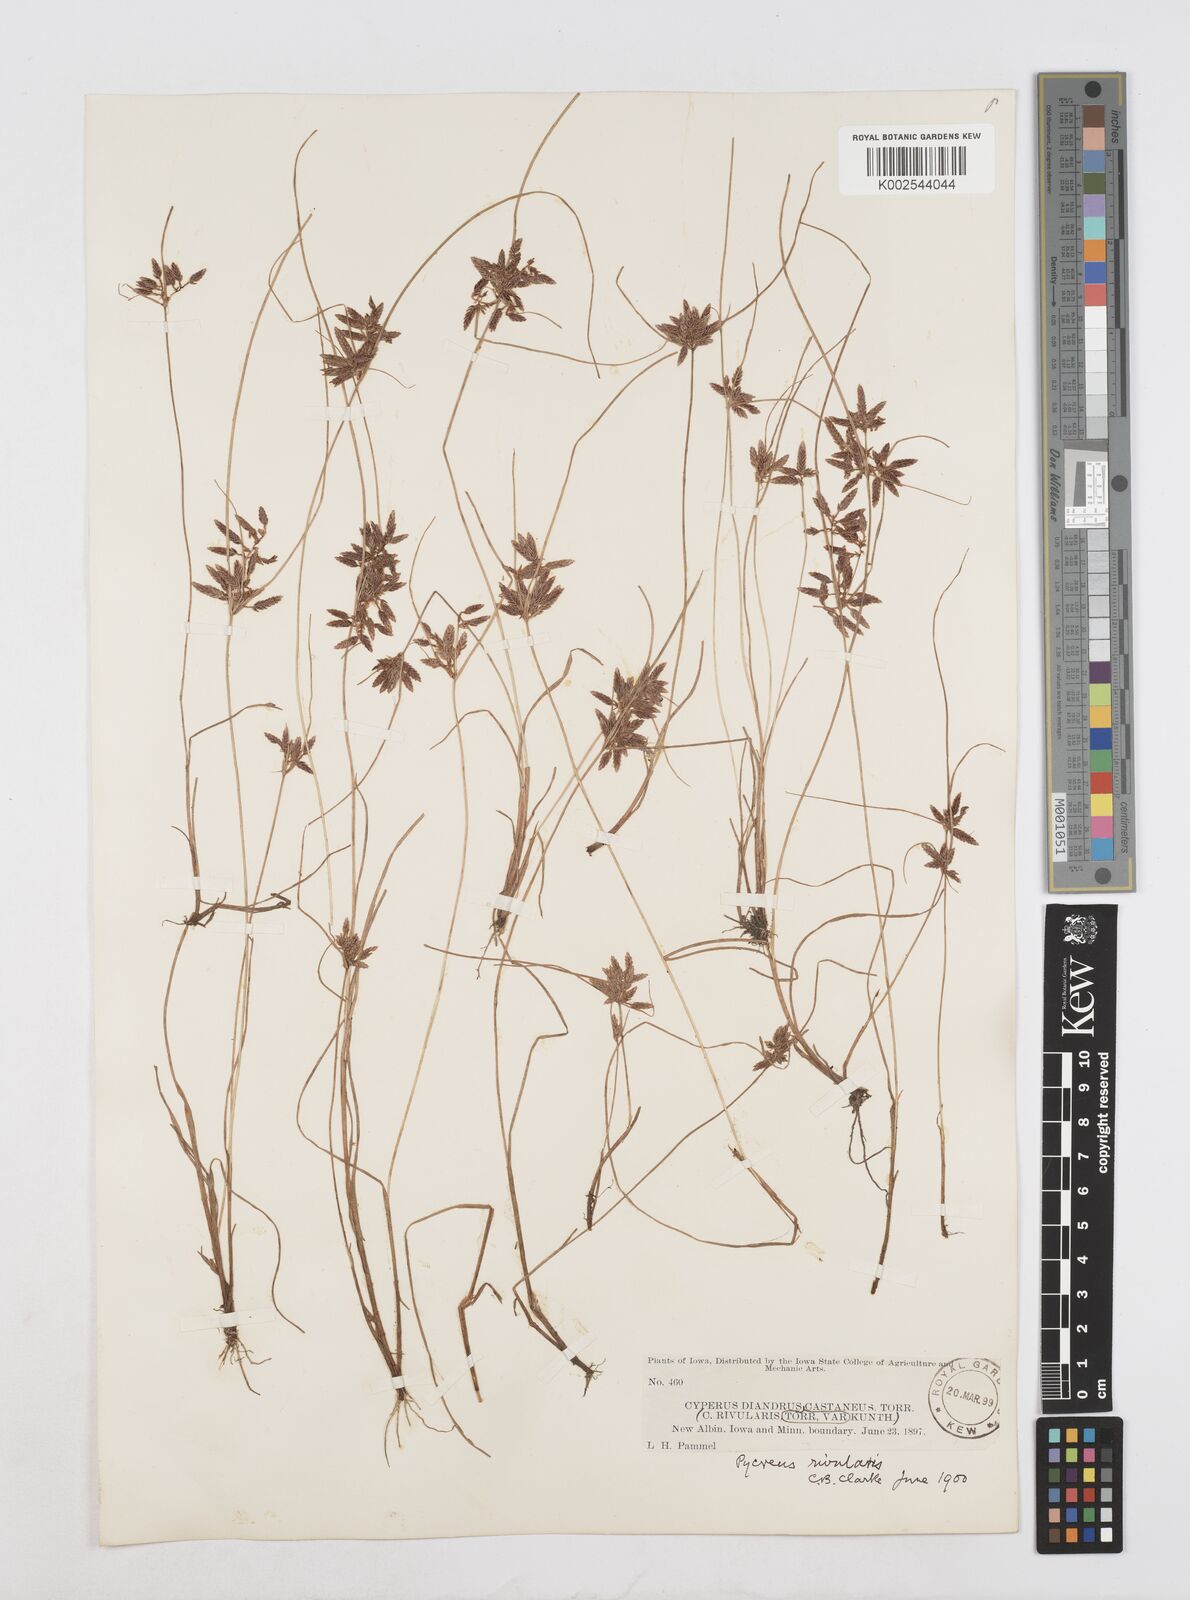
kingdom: Plantae
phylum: Tracheophyta
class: Liliopsida
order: Poales
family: Cyperaceae
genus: Cyperus
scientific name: Cyperus bipartitus
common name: Brook flatsedge
